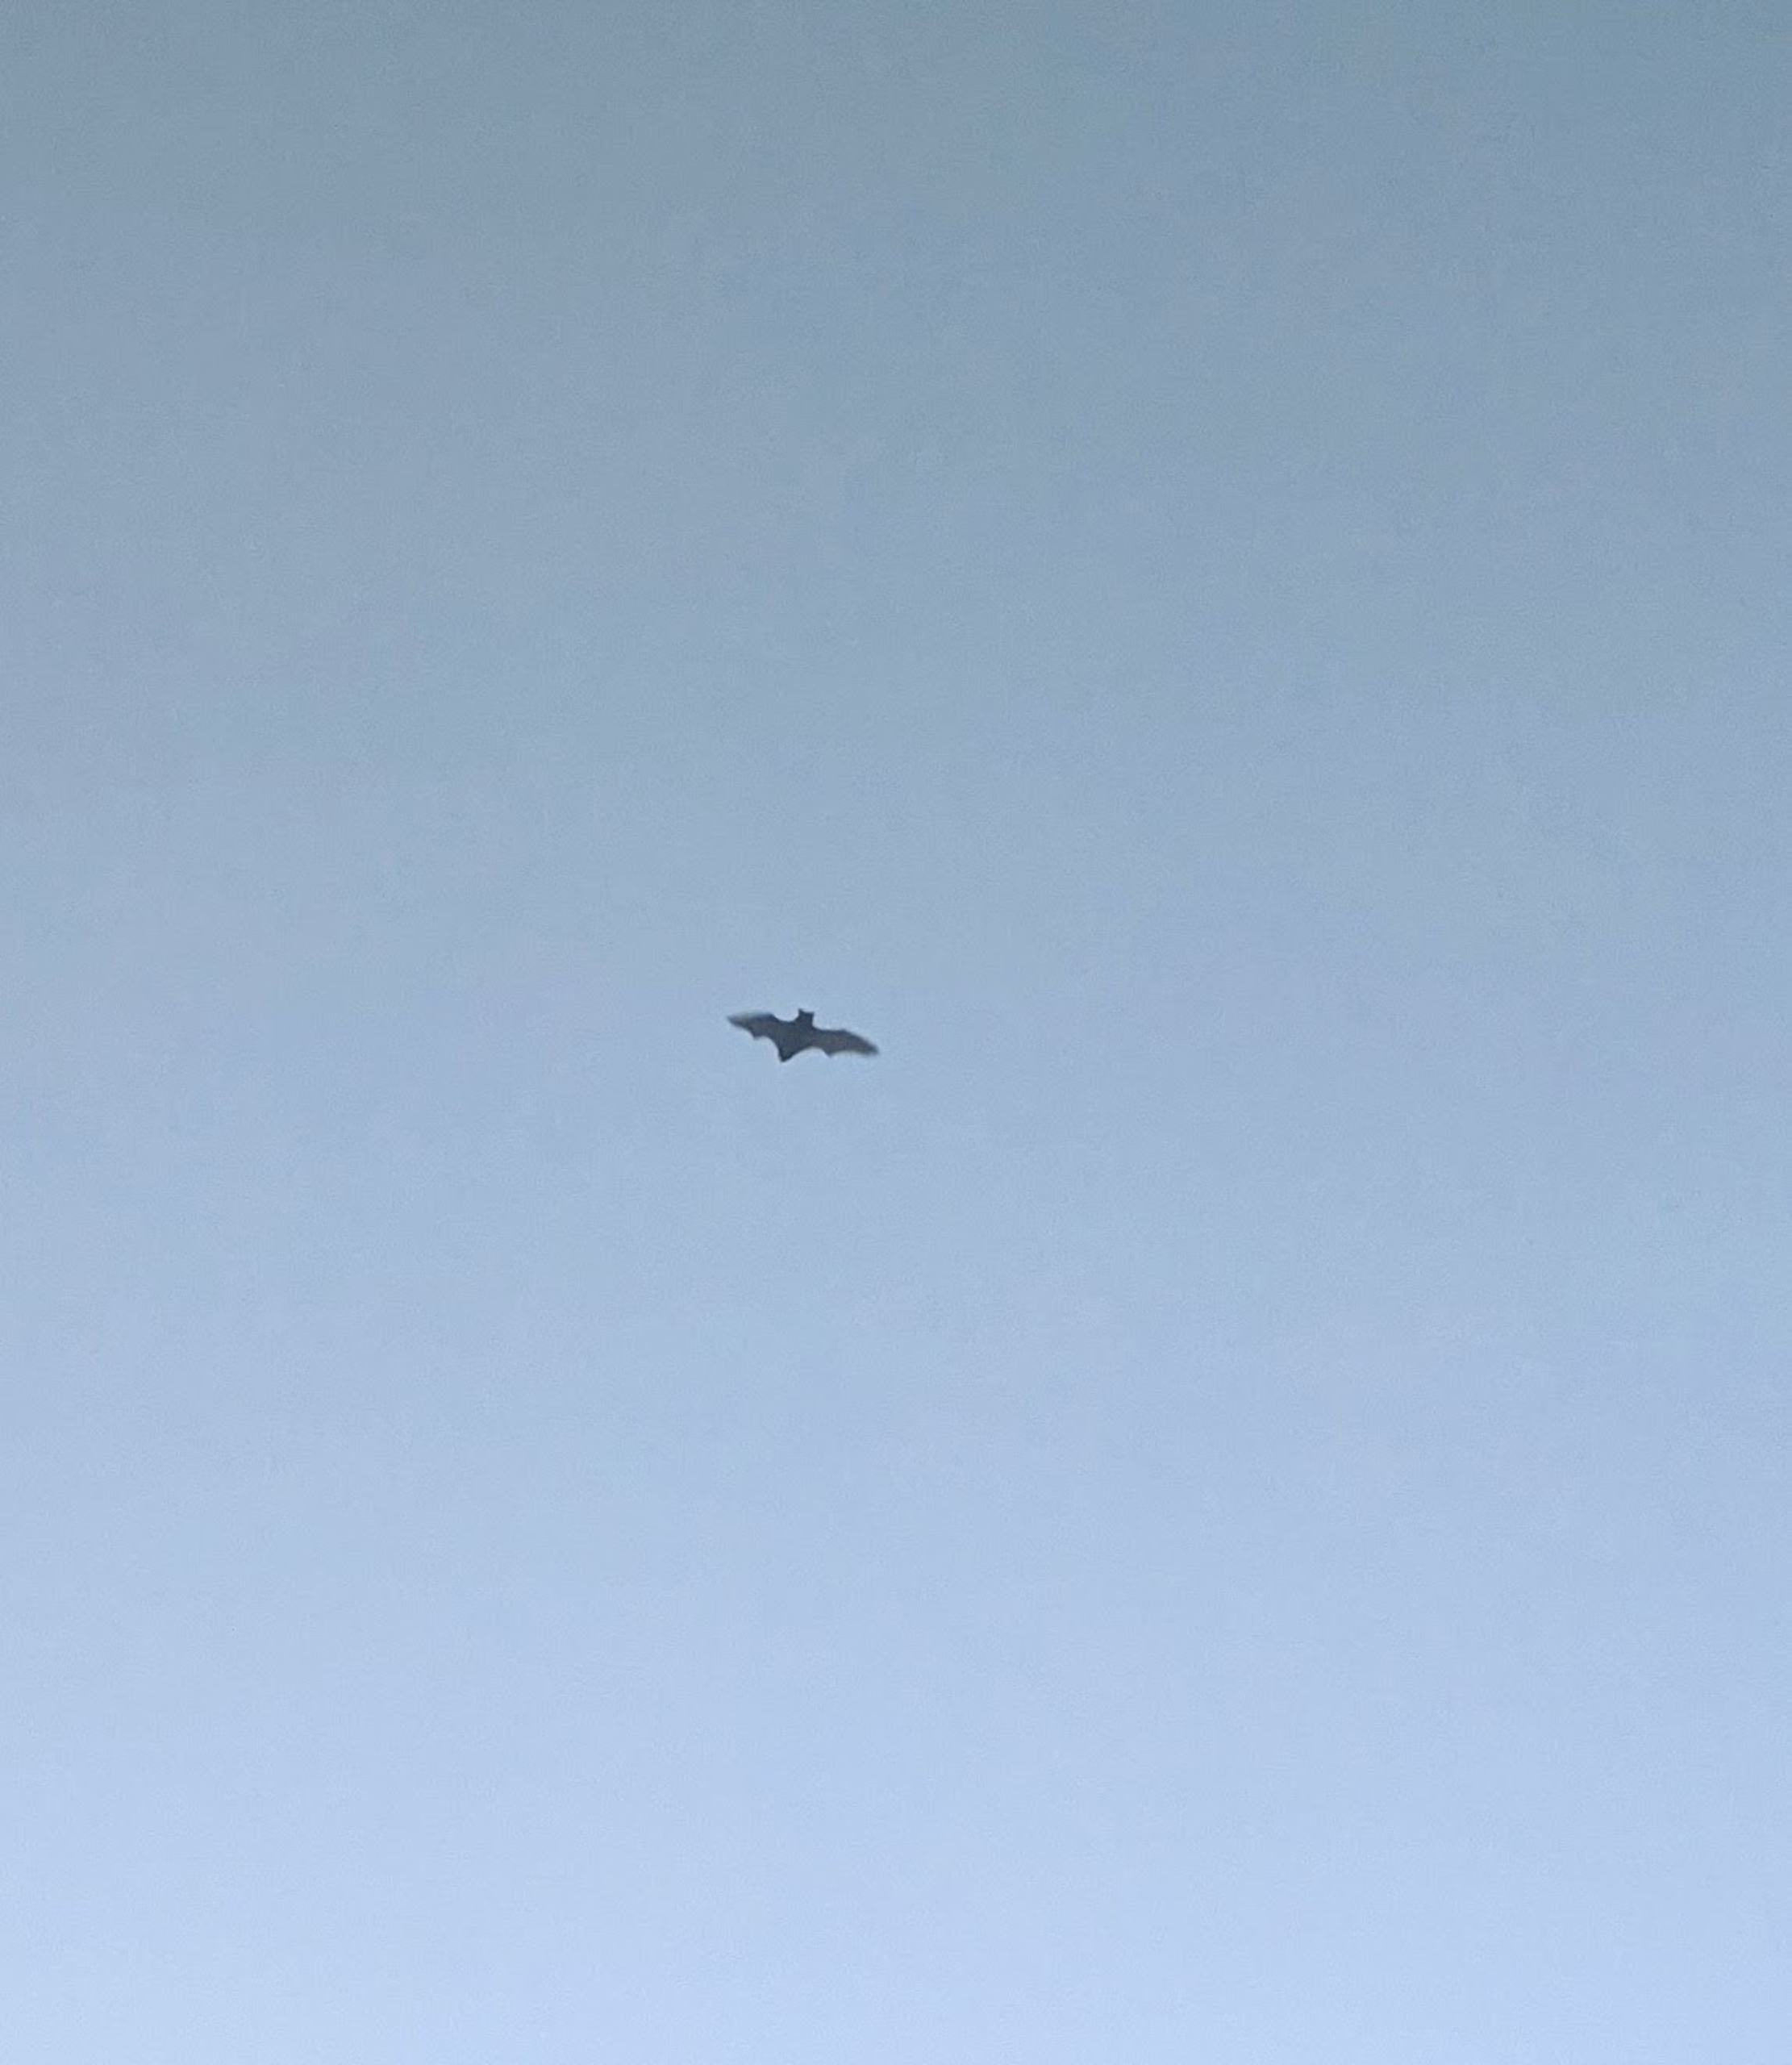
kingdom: Animalia
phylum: Chordata
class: Mammalia
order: Chiroptera
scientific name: Chiroptera
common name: Flagermus
